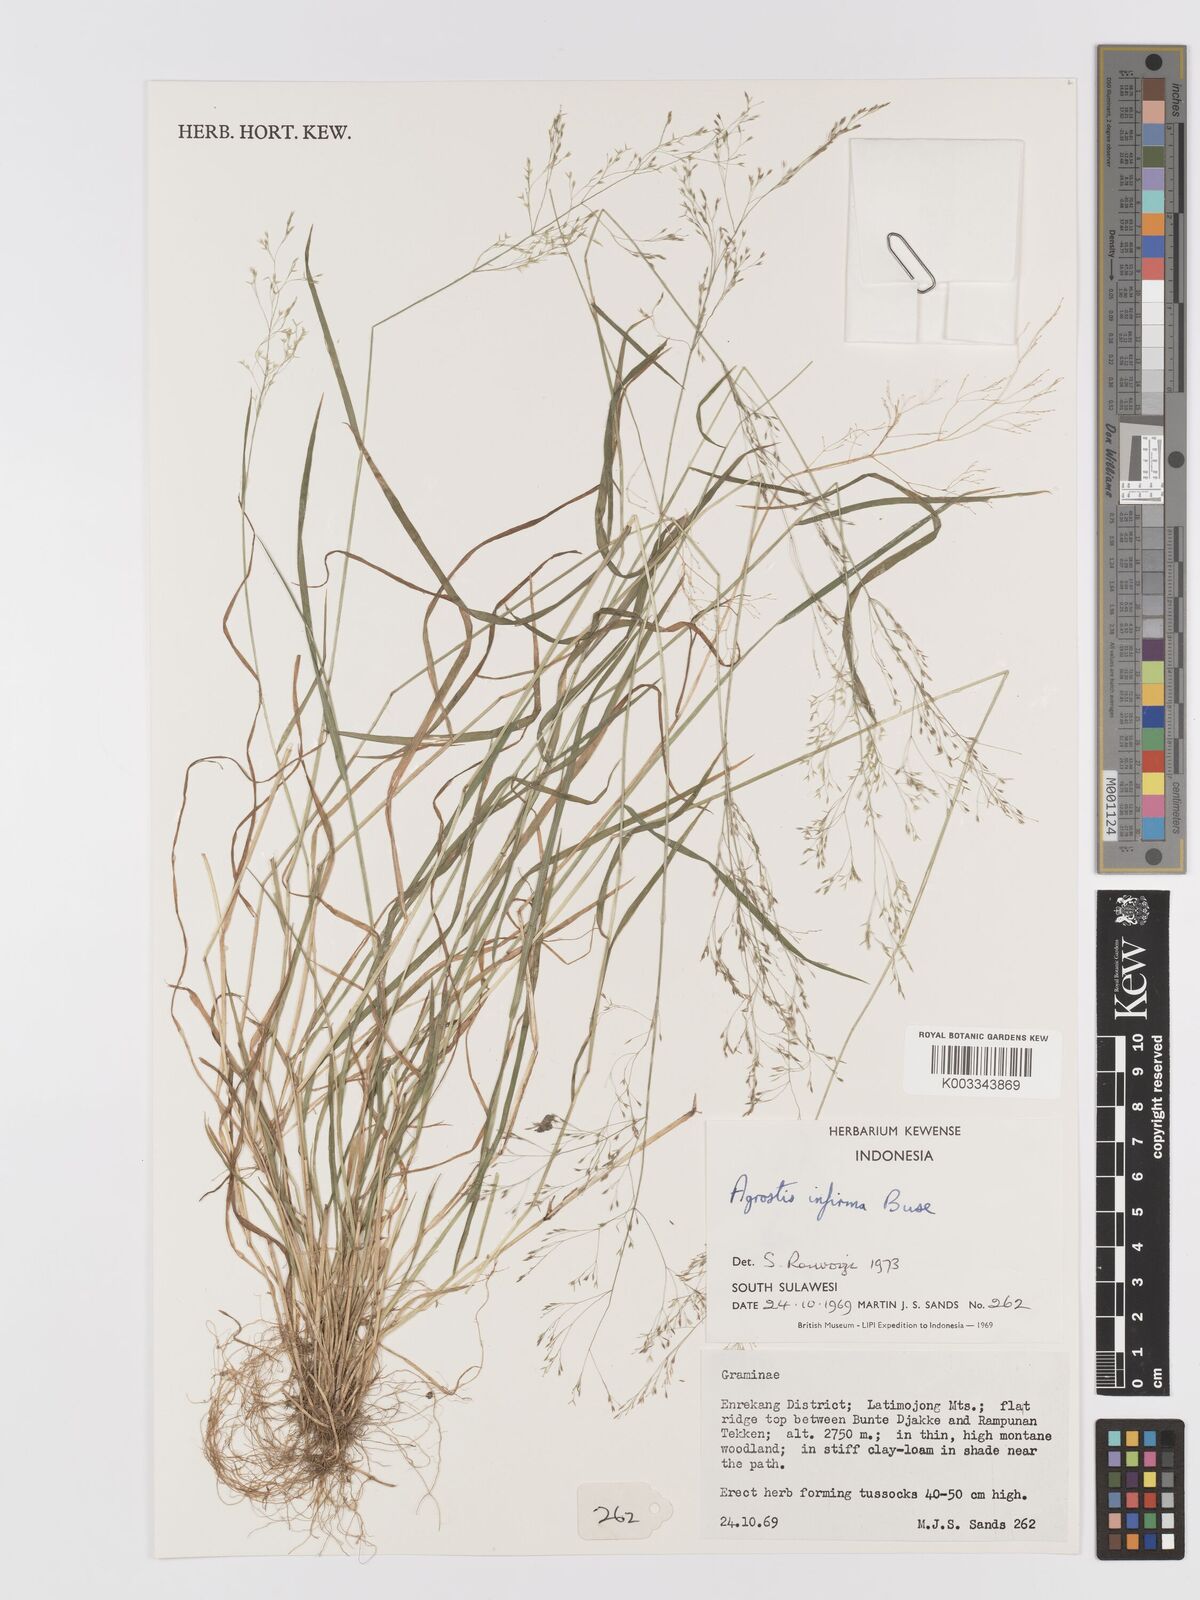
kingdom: Plantae
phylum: Tracheophyta
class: Liliopsida
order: Poales
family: Poaceae
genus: Agrostis
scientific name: Agrostis infirma
